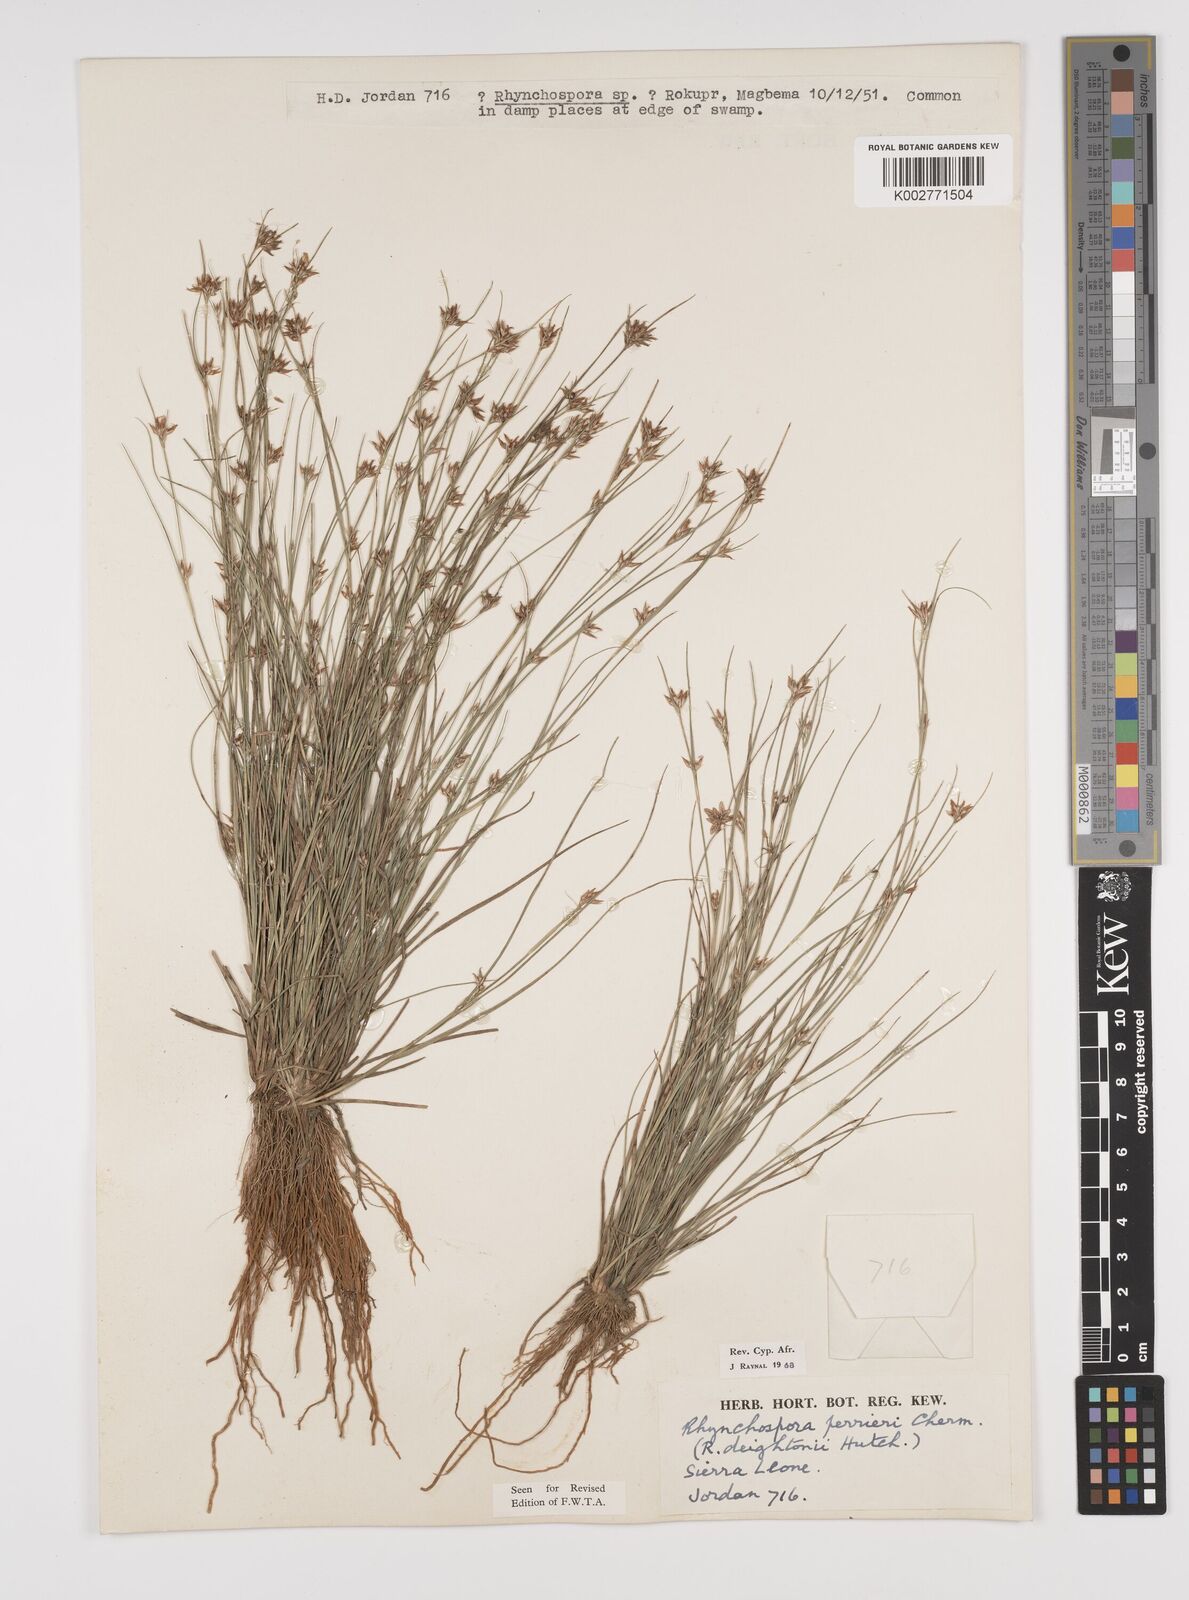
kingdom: Plantae
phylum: Tracheophyta
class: Liliopsida
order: Poales
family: Cyperaceae
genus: Rhynchospora
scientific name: Rhynchospora perrieri
